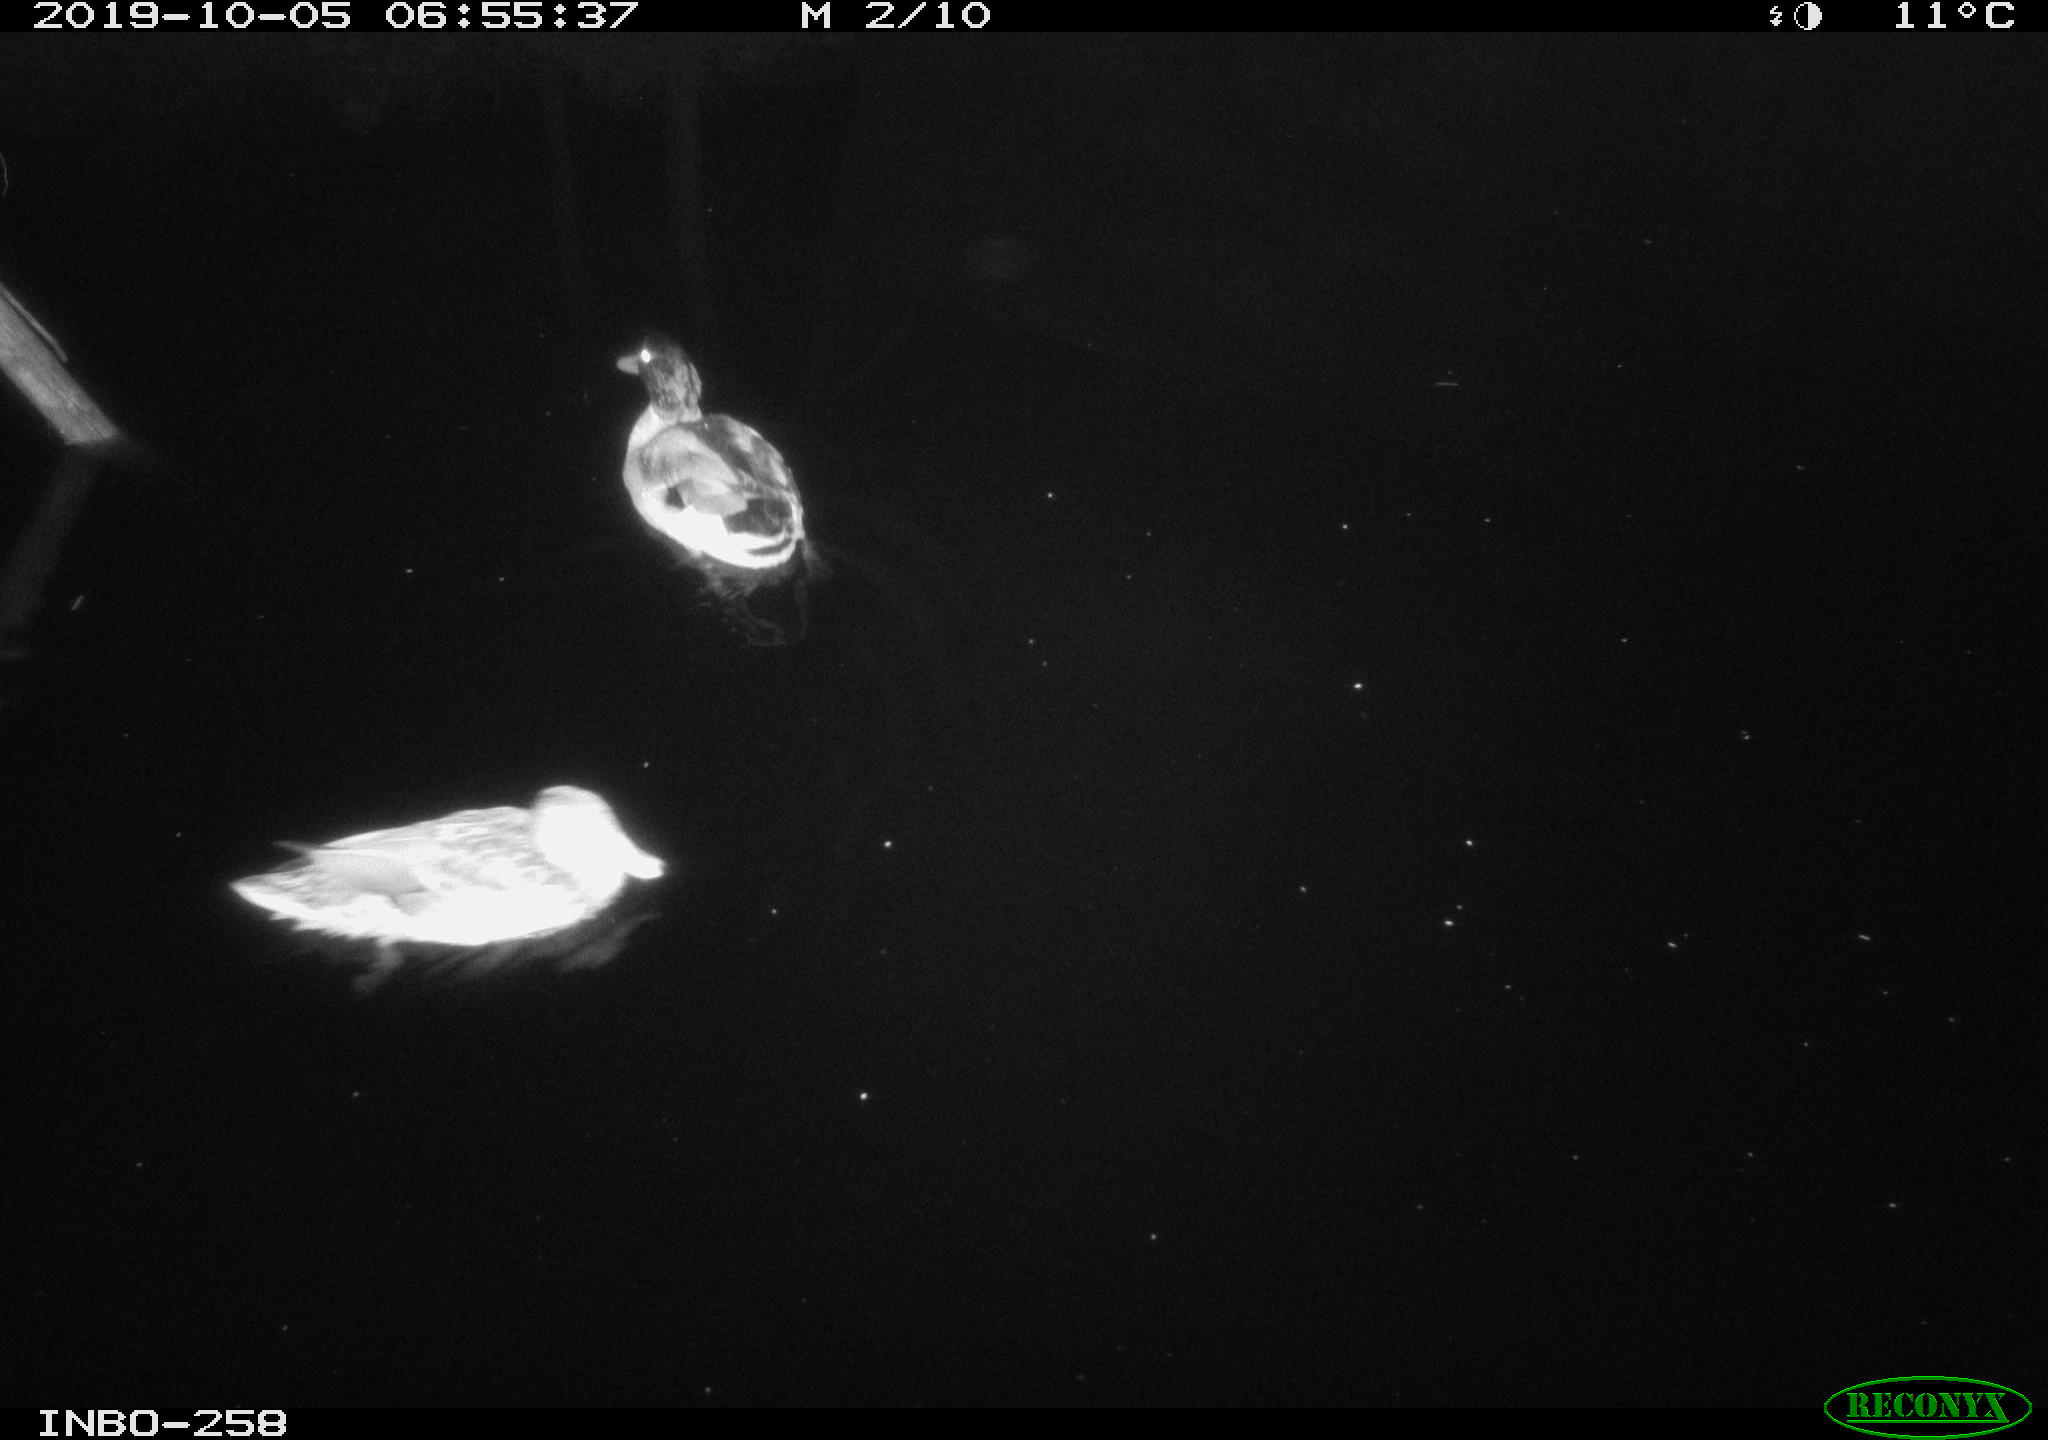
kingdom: Animalia
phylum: Chordata
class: Aves
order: Anseriformes
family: Anatidae
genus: Anas
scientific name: Anas platyrhynchos
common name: Mallard
